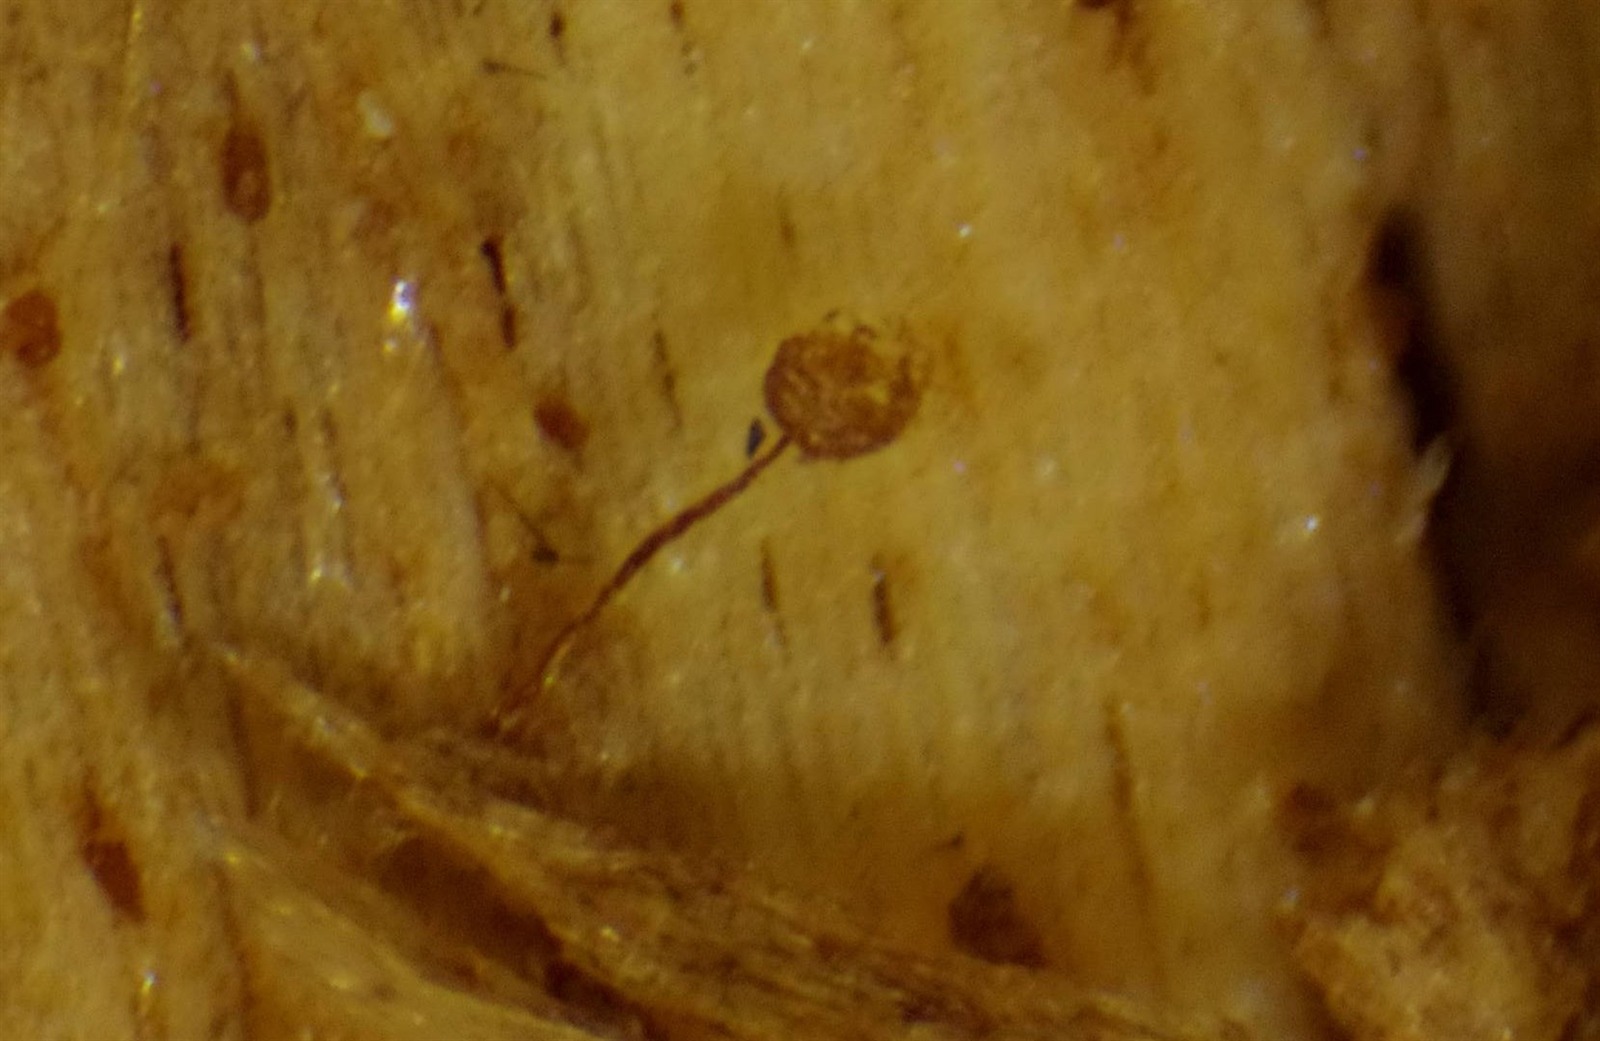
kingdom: Protozoa
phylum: Mycetozoa
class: Myxomycetes
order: Cribrariales
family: Cribrariaceae
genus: Cribraria
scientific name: Cribraria languescens
